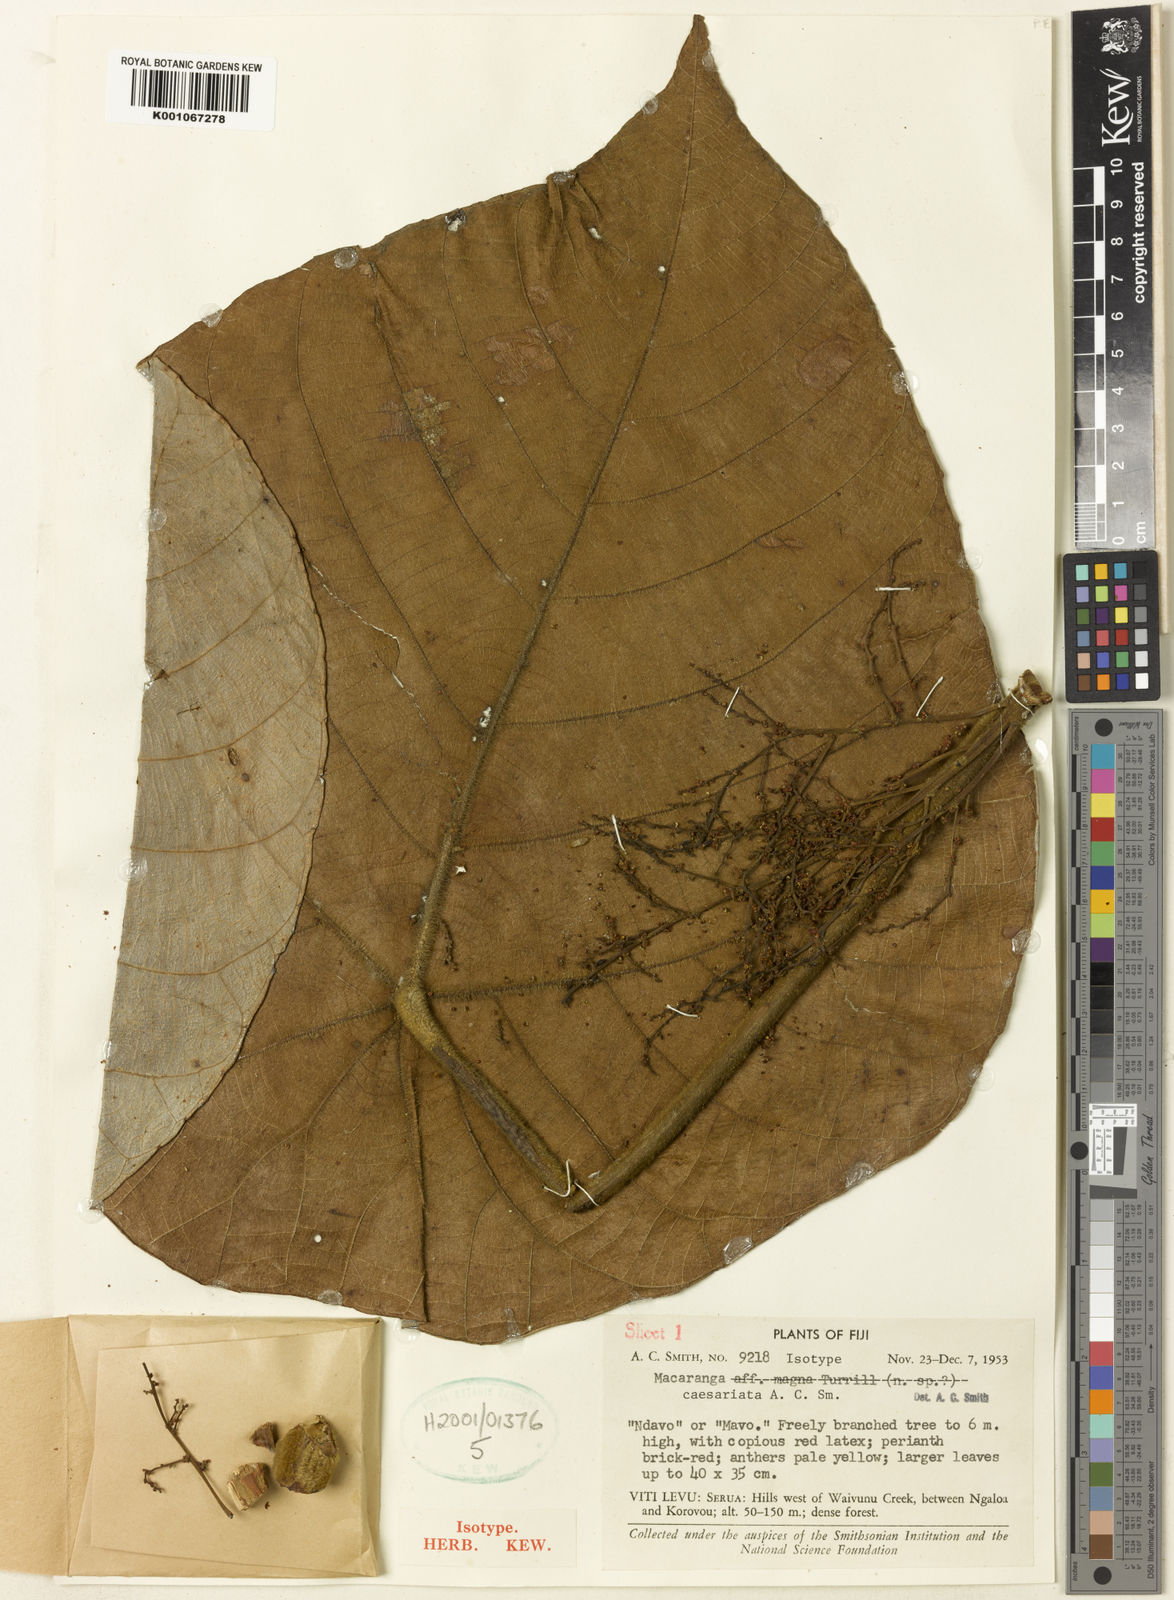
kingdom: Plantae
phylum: Tracheophyta
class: Magnoliopsida
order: Malpighiales
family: Euphorbiaceae
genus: Macaranga
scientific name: Macaranga caesariata
